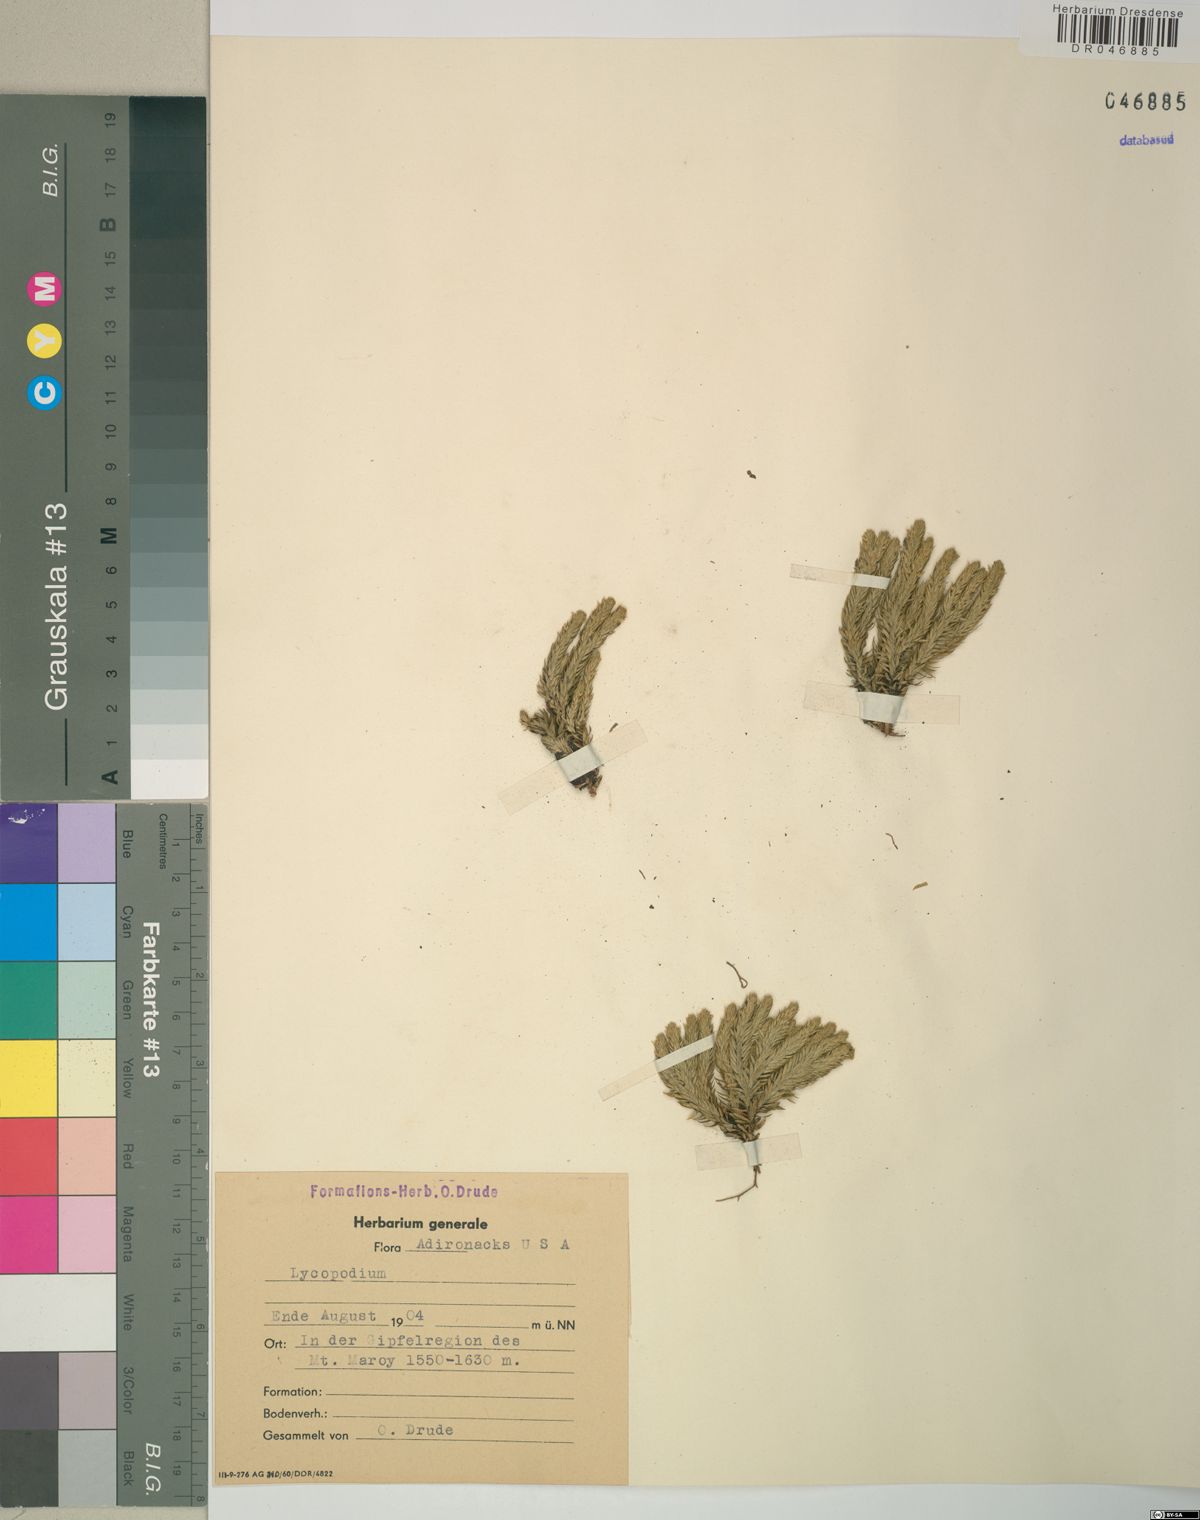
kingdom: Plantae
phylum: Tracheophyta
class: Lycopodiopsida
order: Lycopodiales
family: Lycopodiaceae
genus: Lycopodium
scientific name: Lycopodium
